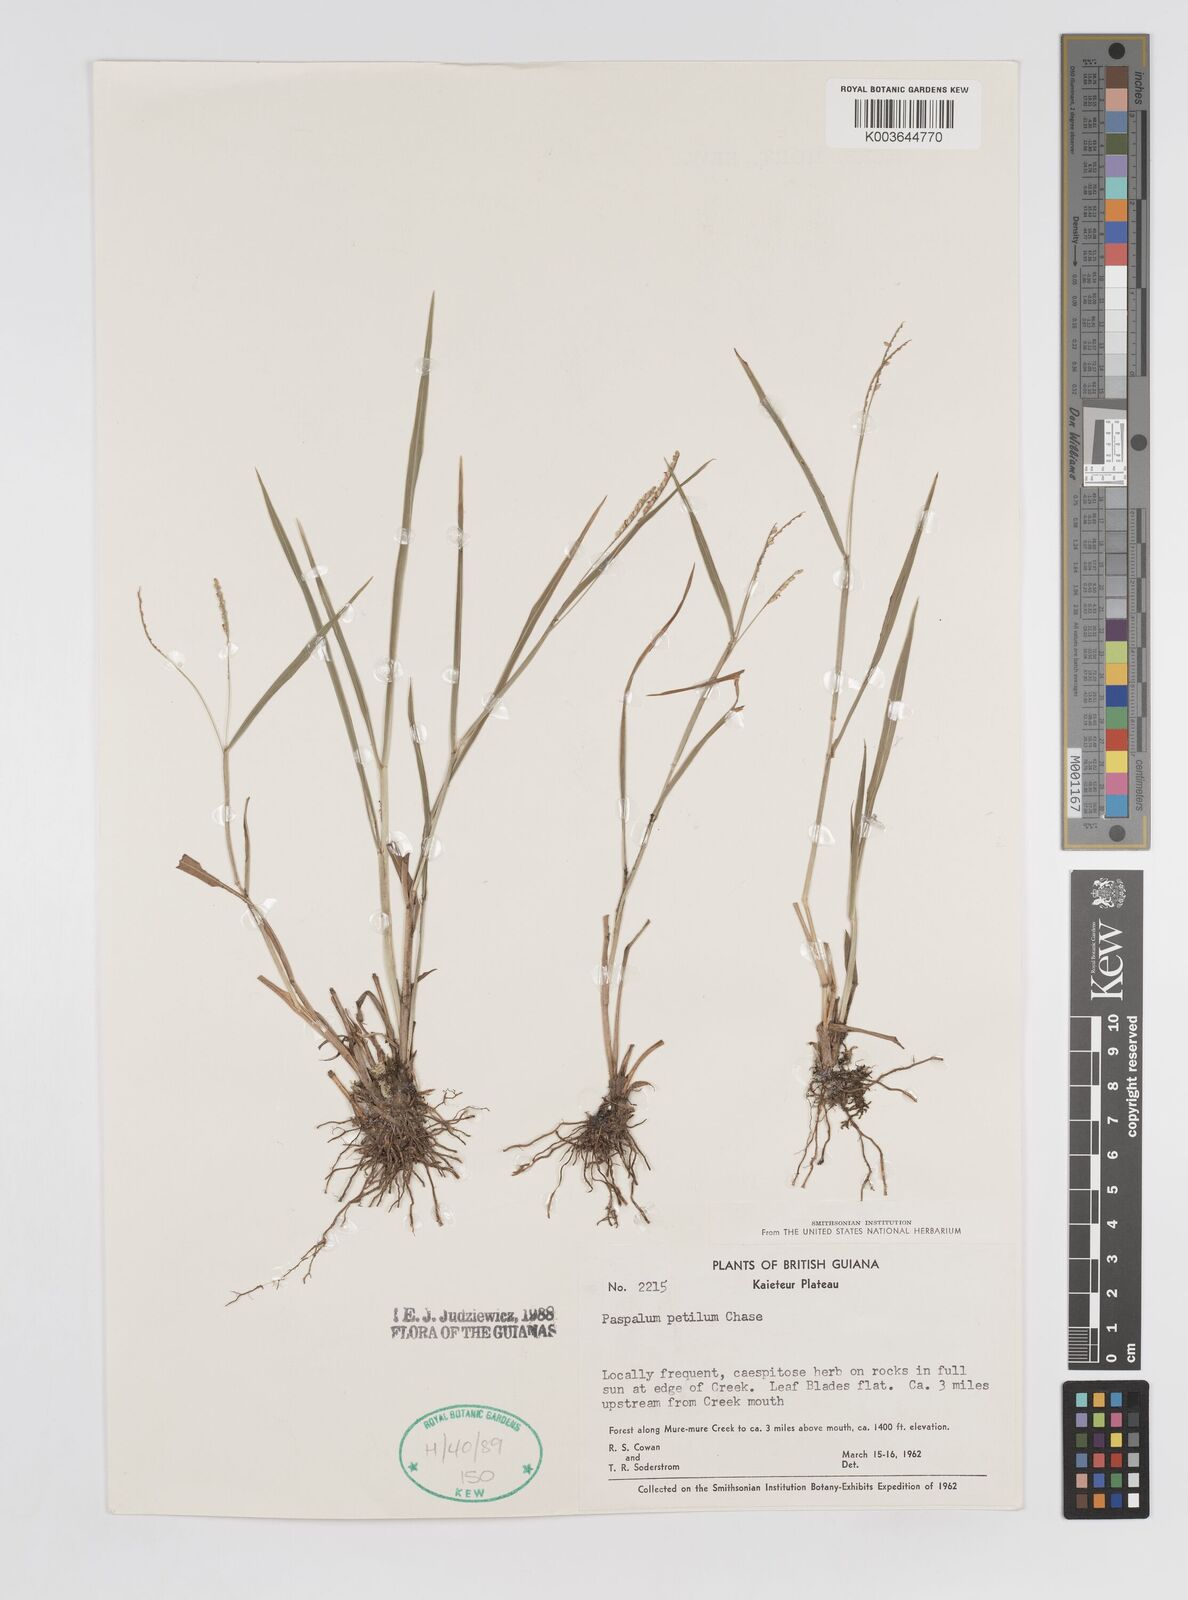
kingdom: Plantae
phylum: Tracheophyta
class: Liliopsida
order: Poales
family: Poaceae
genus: Paspalum
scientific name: Paspalum petilum
